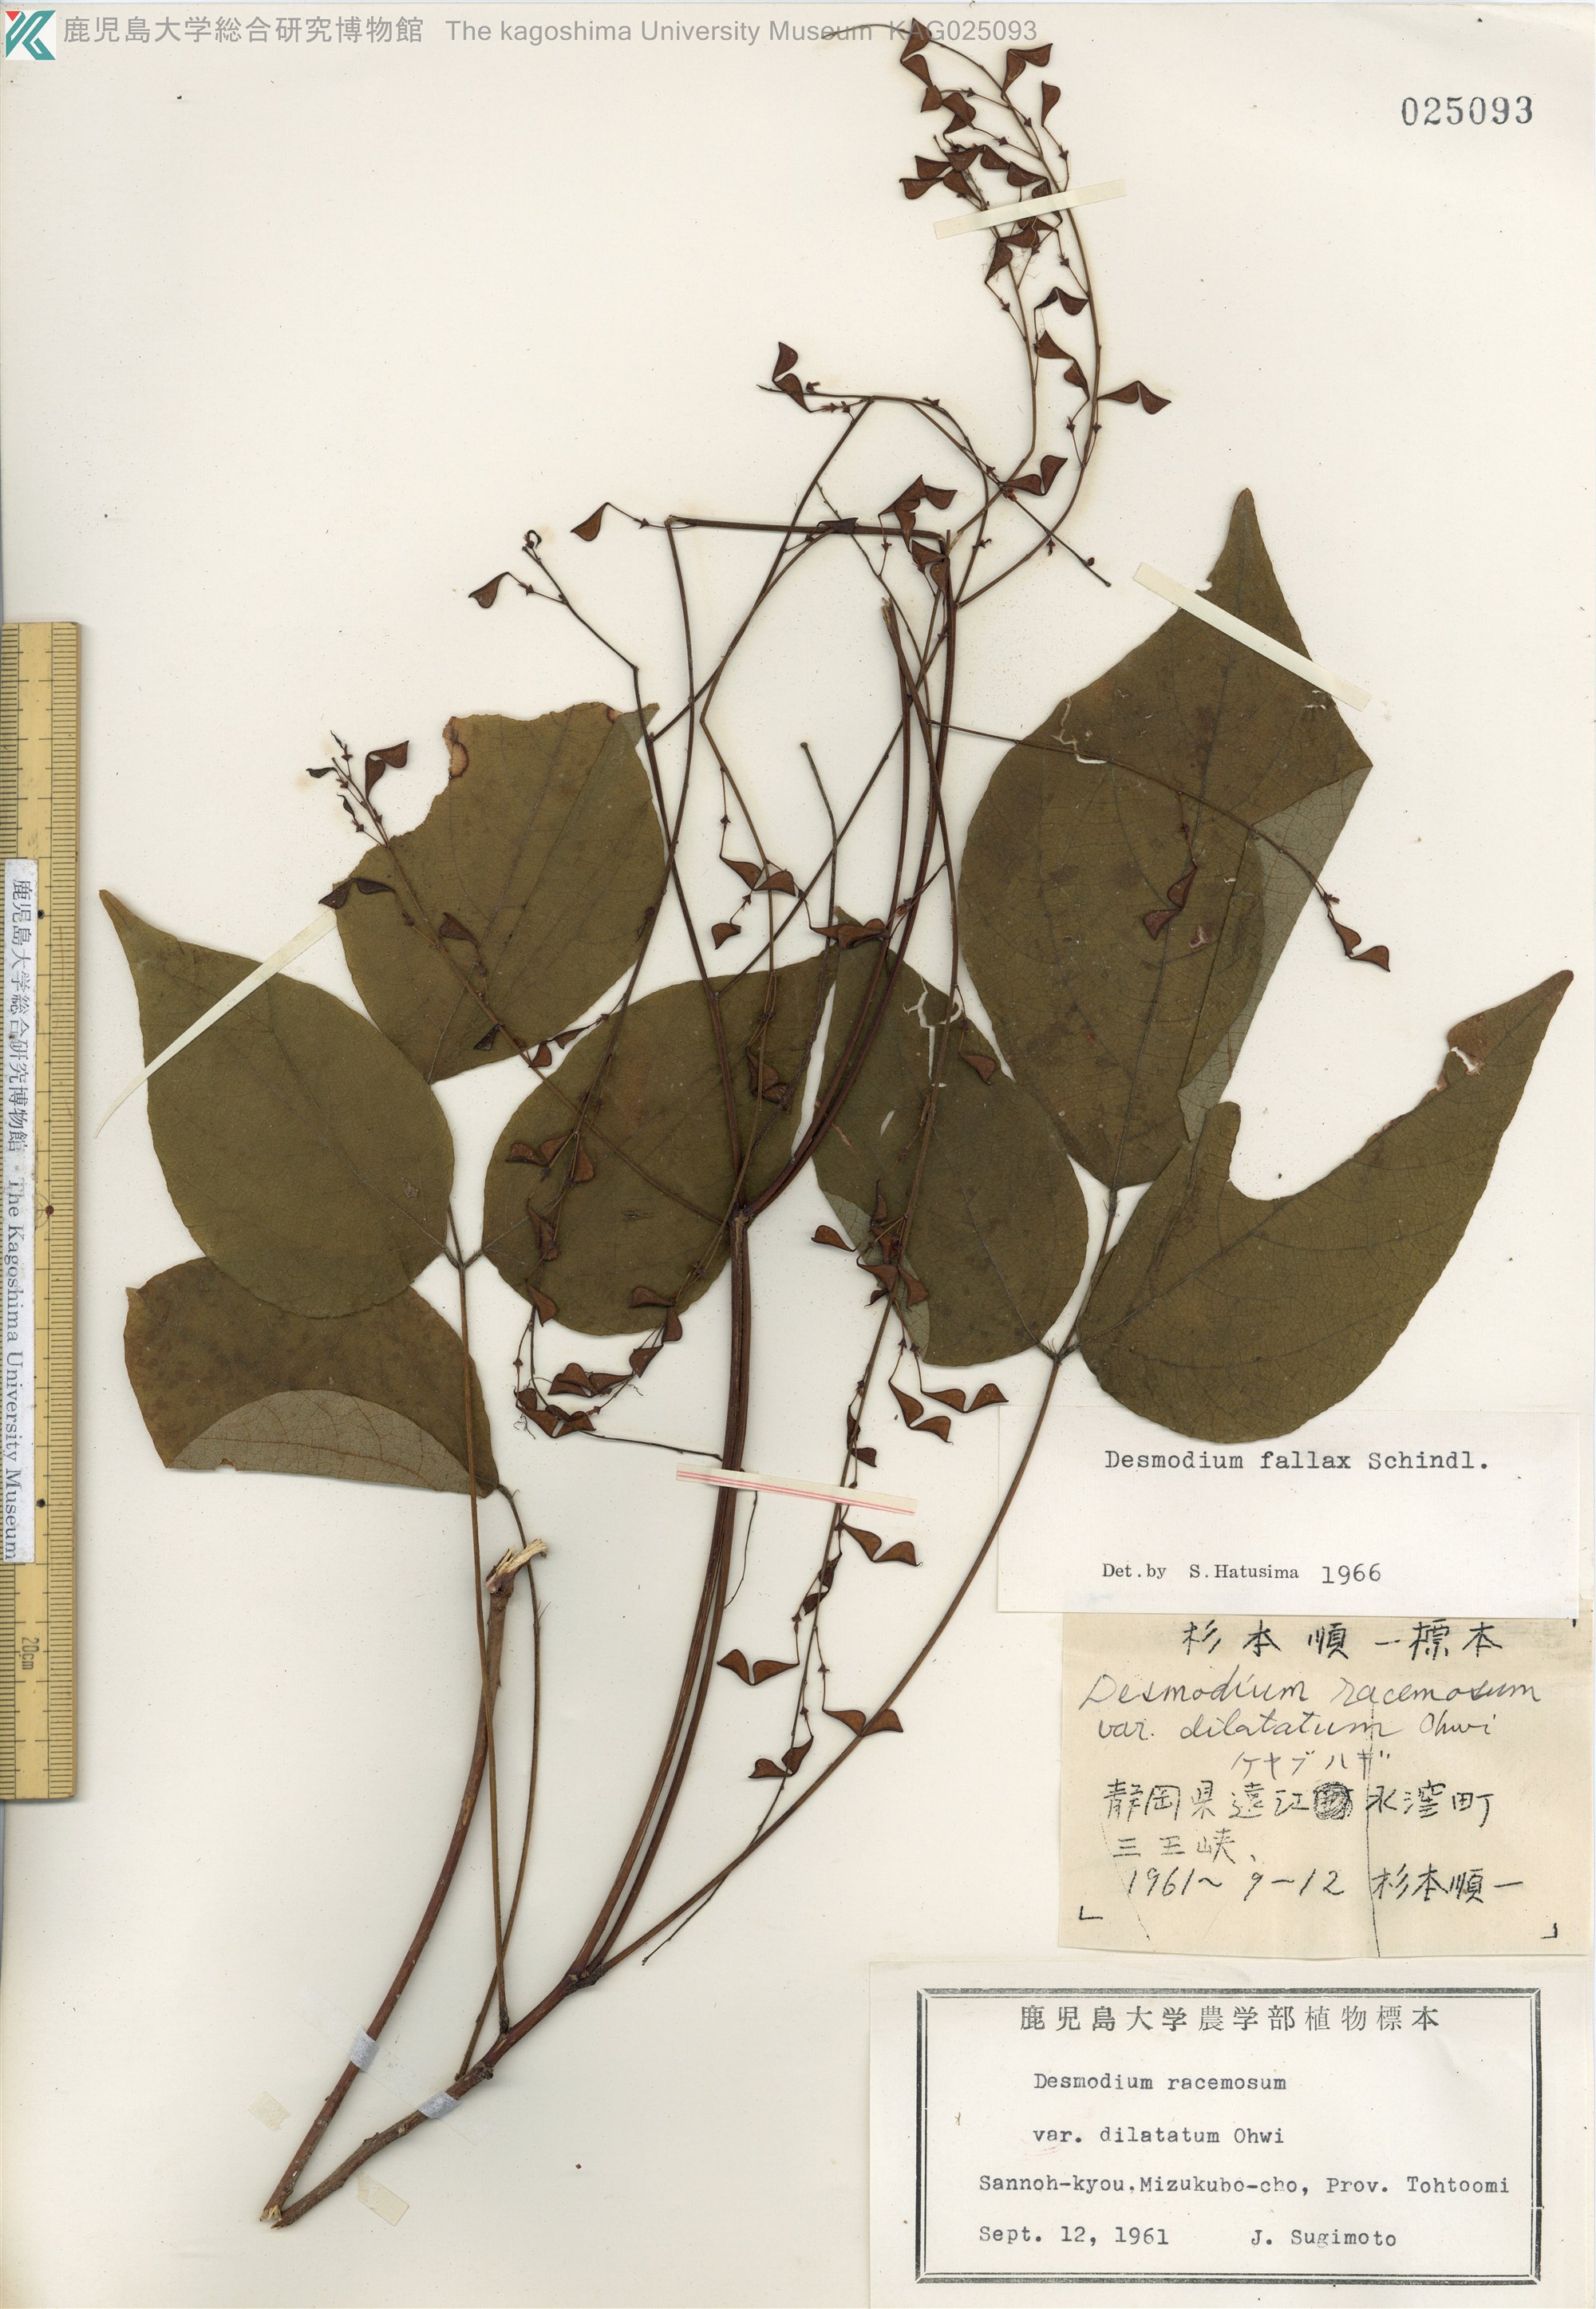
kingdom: Plantae
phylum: Tracheophyta
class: Magnoliopsida
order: Fabales
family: Fabaceae
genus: Hylodesmum
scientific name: Hylodesmum podocarpum
